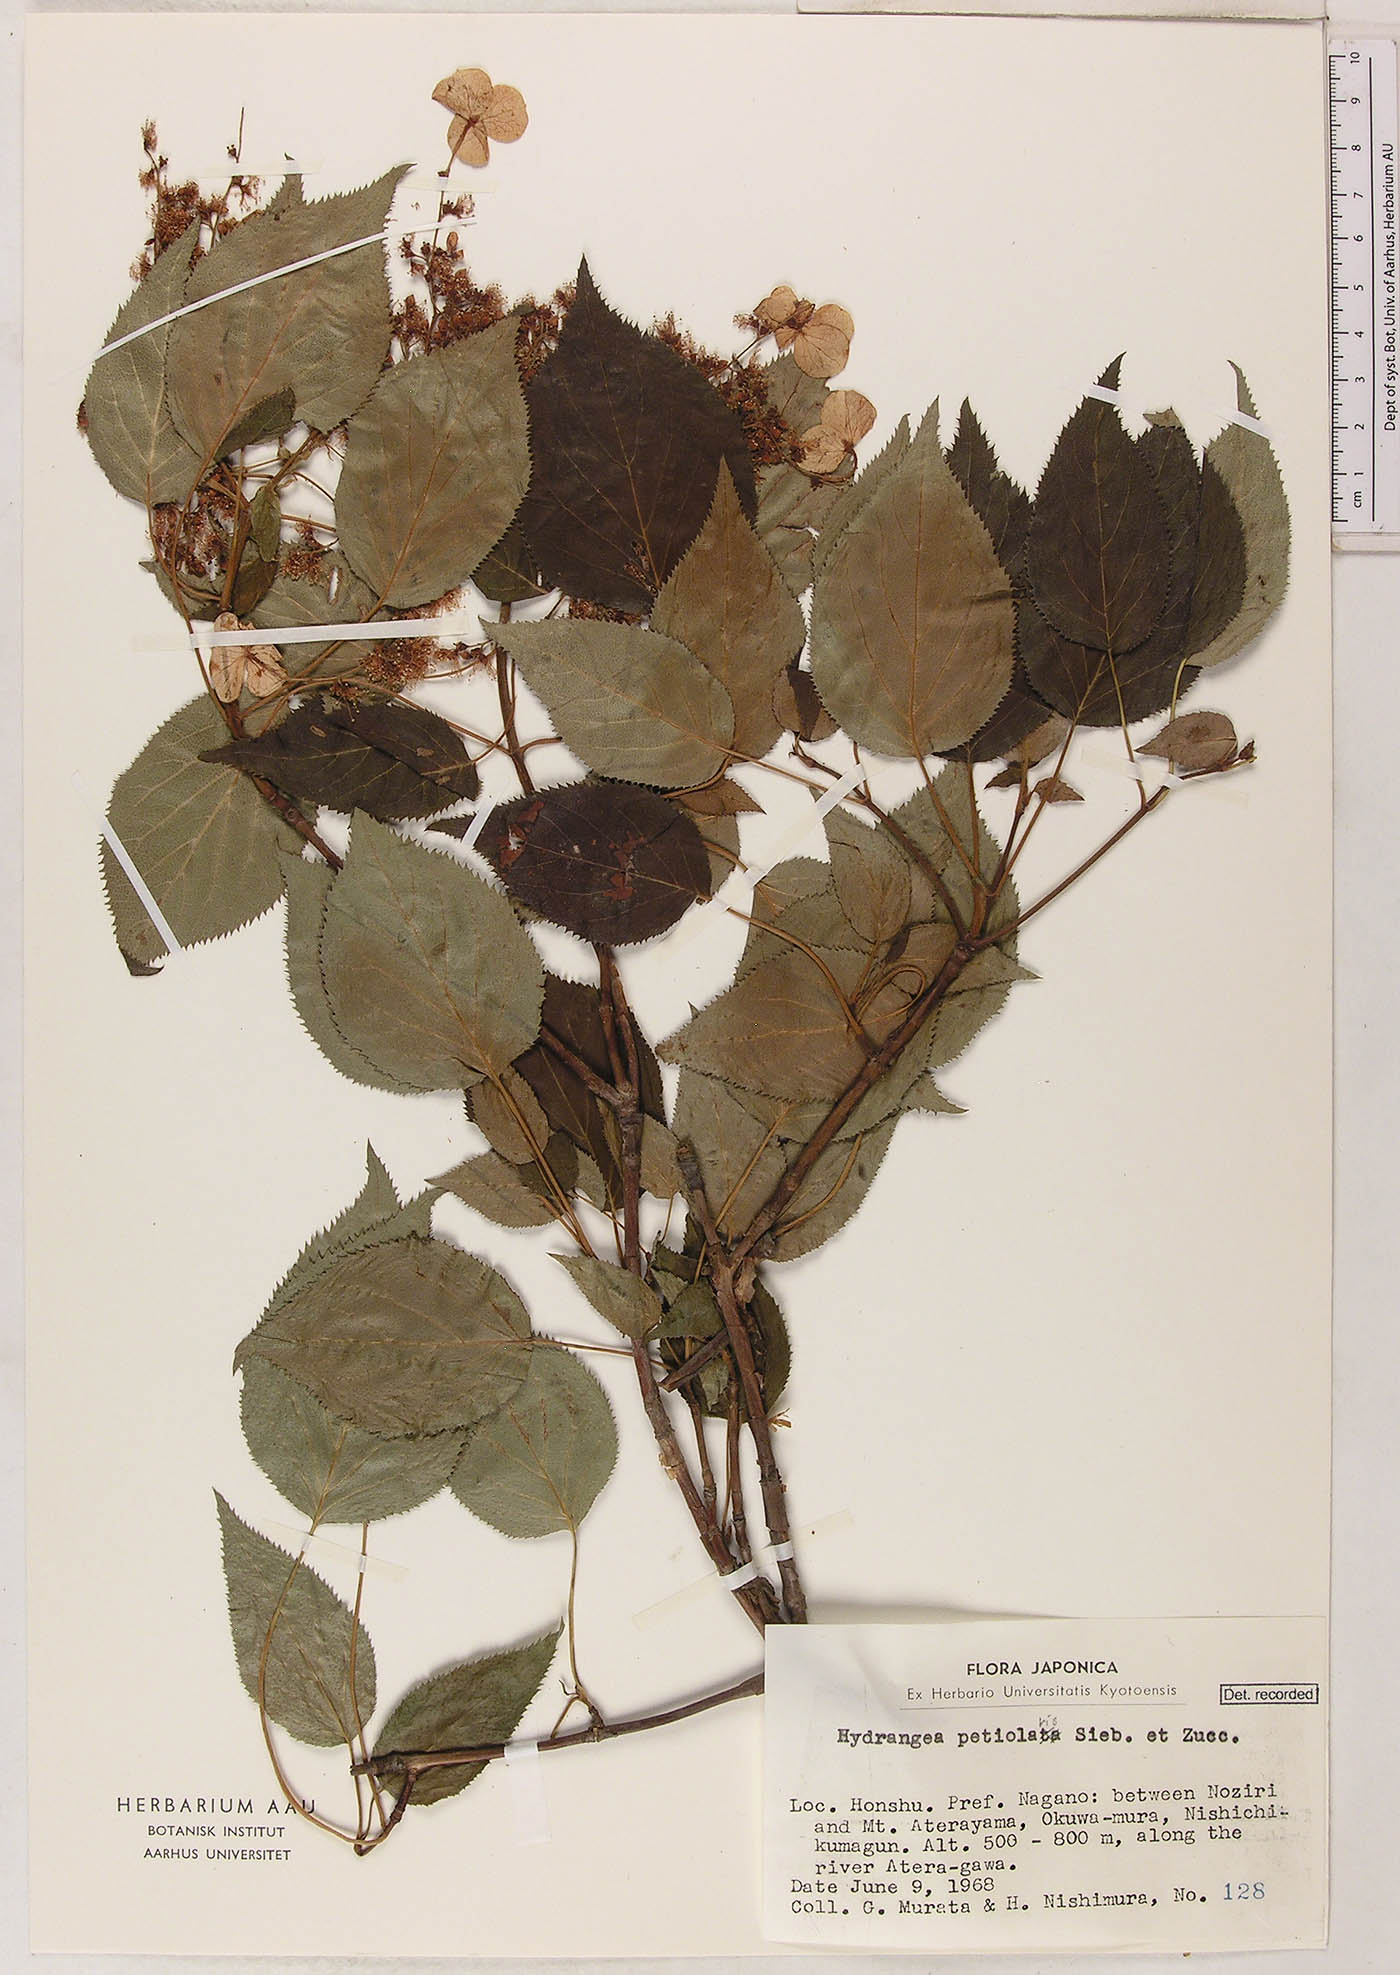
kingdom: Plantae
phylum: Tracheophyta
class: Magnoliopsida
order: Cornales
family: Hydrangeaceae
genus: Hydrangea
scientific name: Hydrangea petiolaris
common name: Japanese climbing hydrangea
